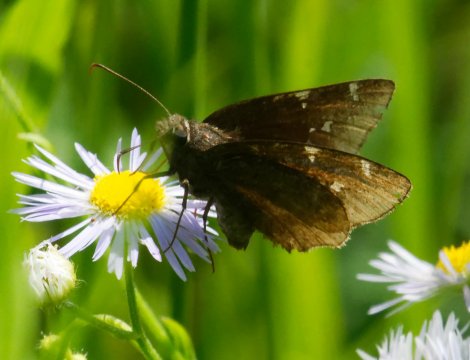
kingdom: Animalia
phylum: Arthropoda
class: Insecta
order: Lepidoptera
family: Hesperiidae
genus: Autochton
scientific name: Autochton
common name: Northern Cloudywing
